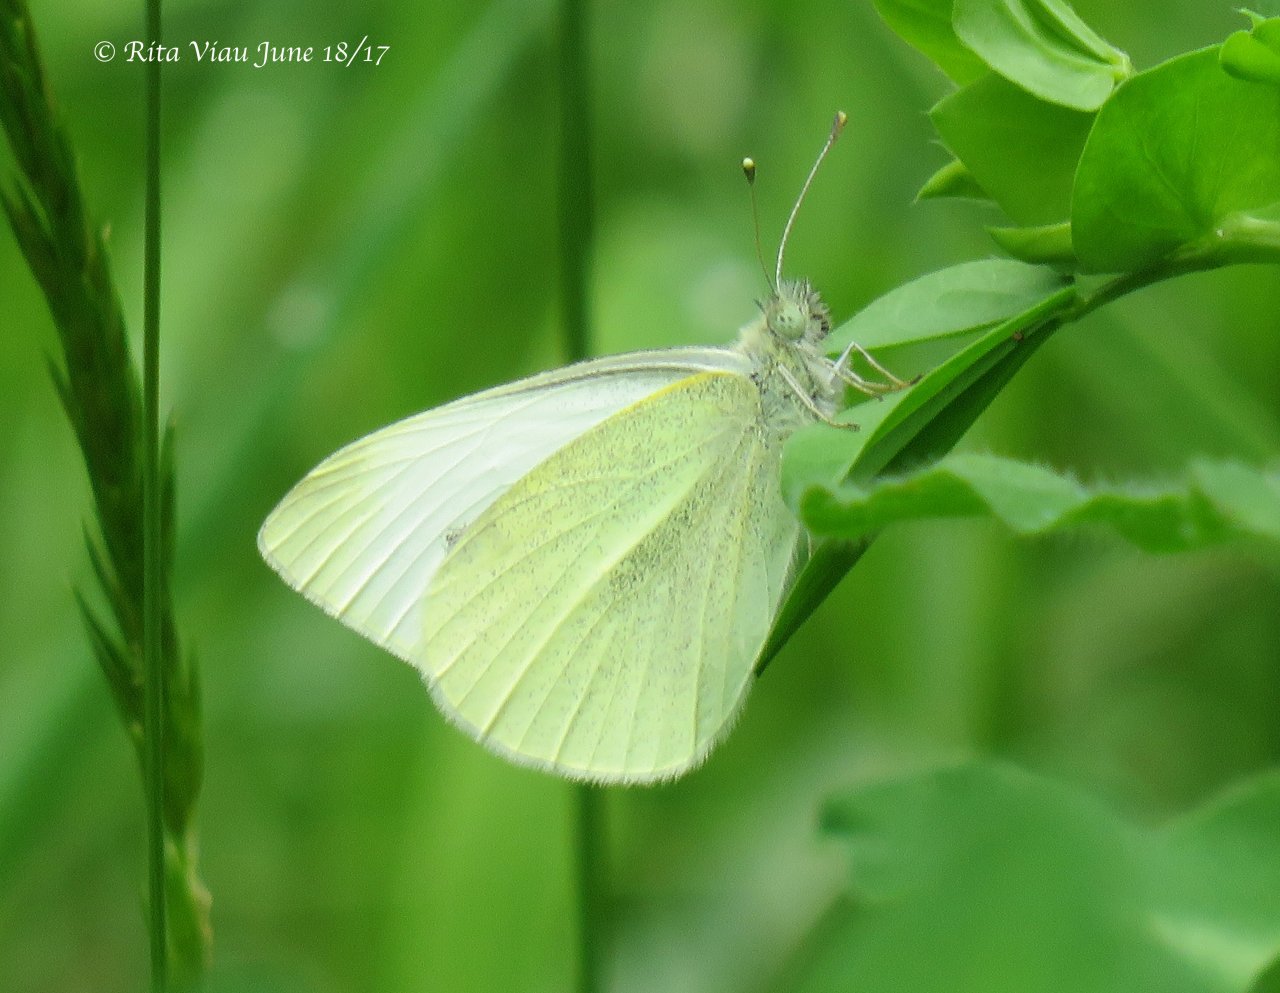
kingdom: Animalia
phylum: Arthropoda
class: Insecta
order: Lepidoptera
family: Pieridae
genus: Pieris
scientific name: Pieris rapae
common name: Cabbage White
